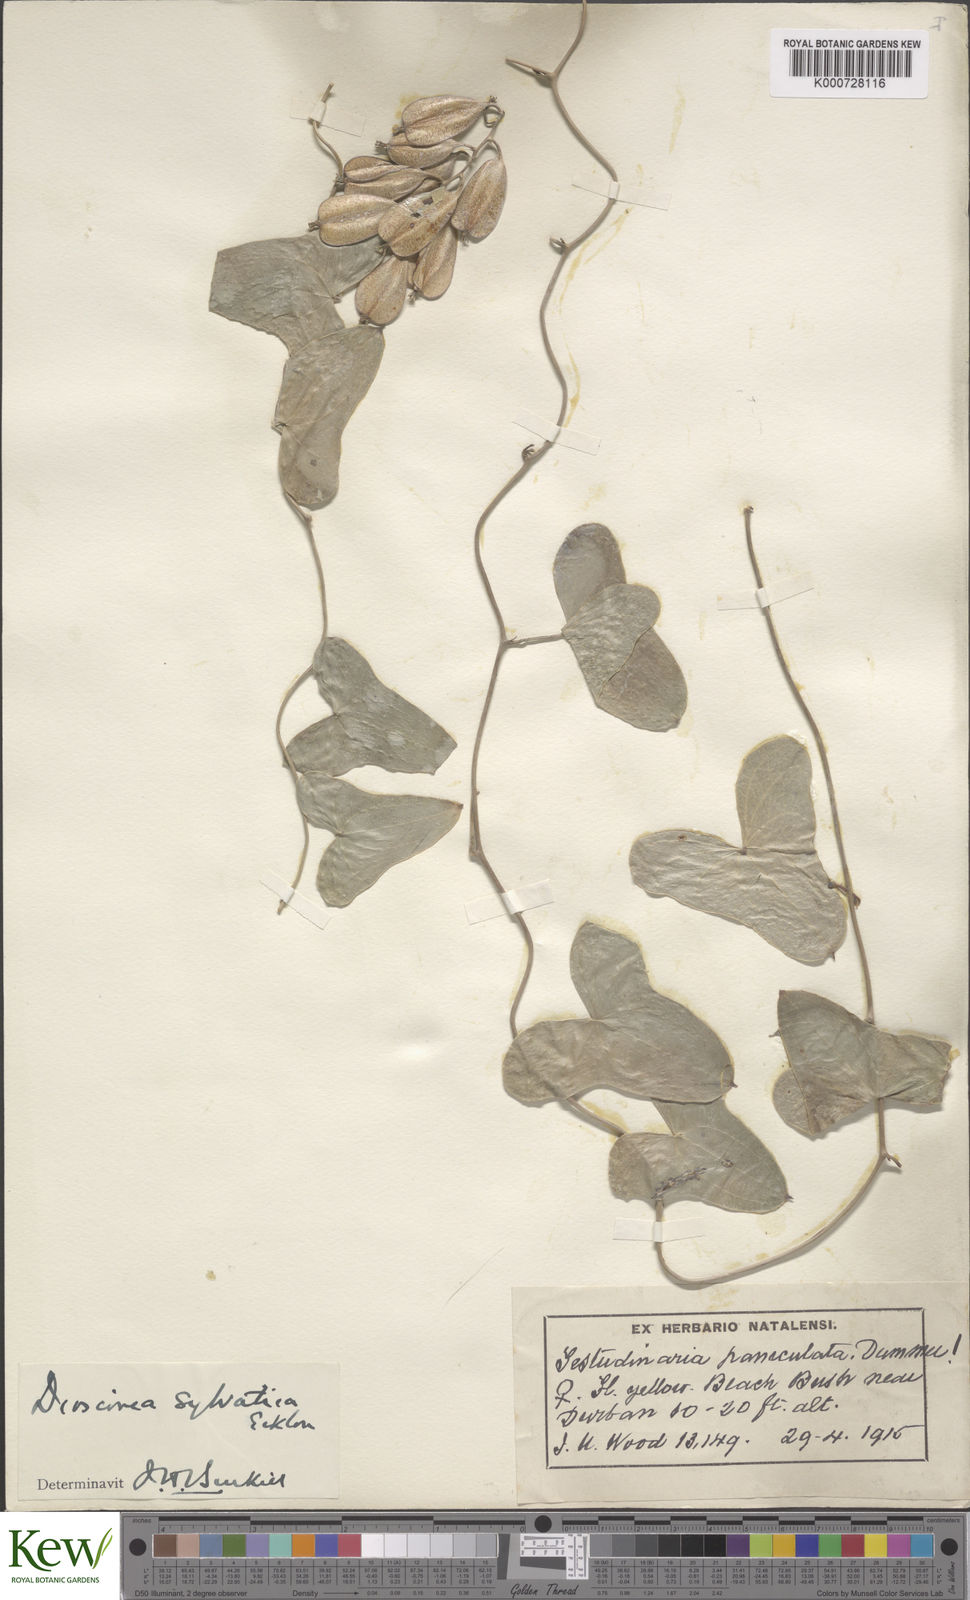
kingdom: Plantae
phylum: Tracheophyta
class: Liliopsida
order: Dioscoreales
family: Dioscoreaceae
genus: Dioscorea
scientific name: Dioscorea sylvatica
